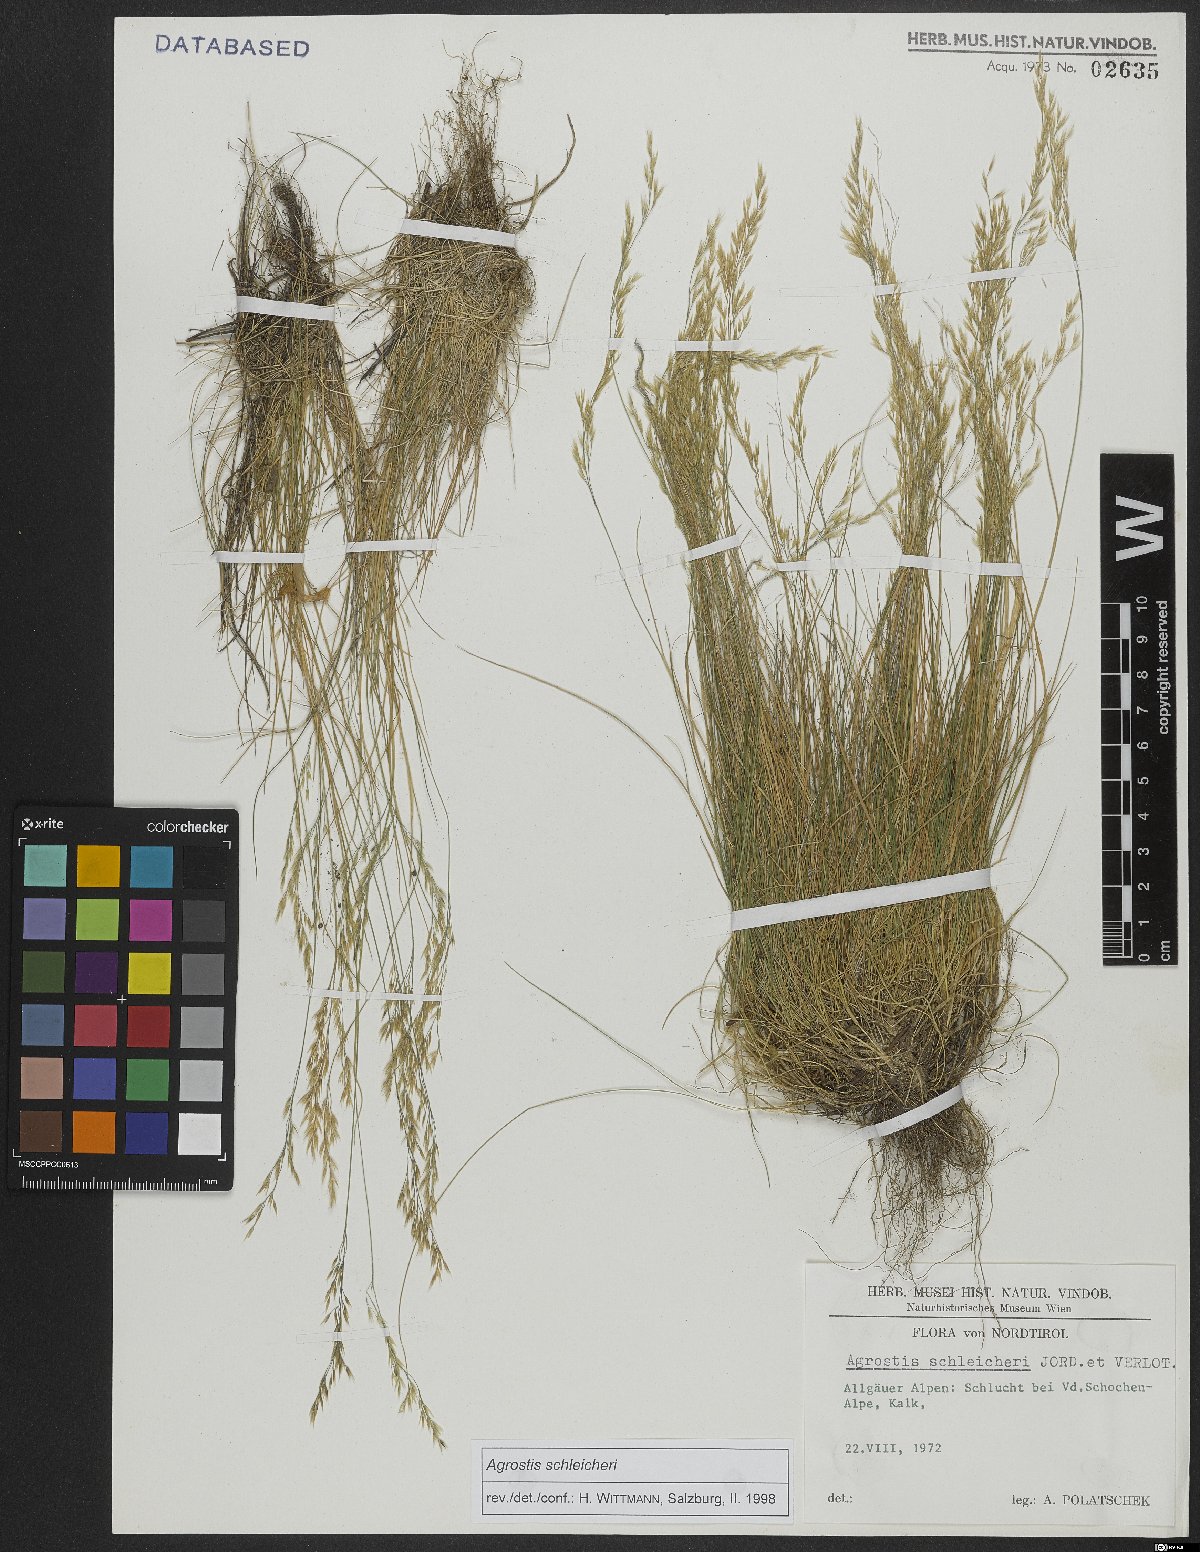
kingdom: Plantae
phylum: Tracheophyta
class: Liliopsida
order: Poales
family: Poaceae
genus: Alpagrostis
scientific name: Alpagrostis schleicheri
